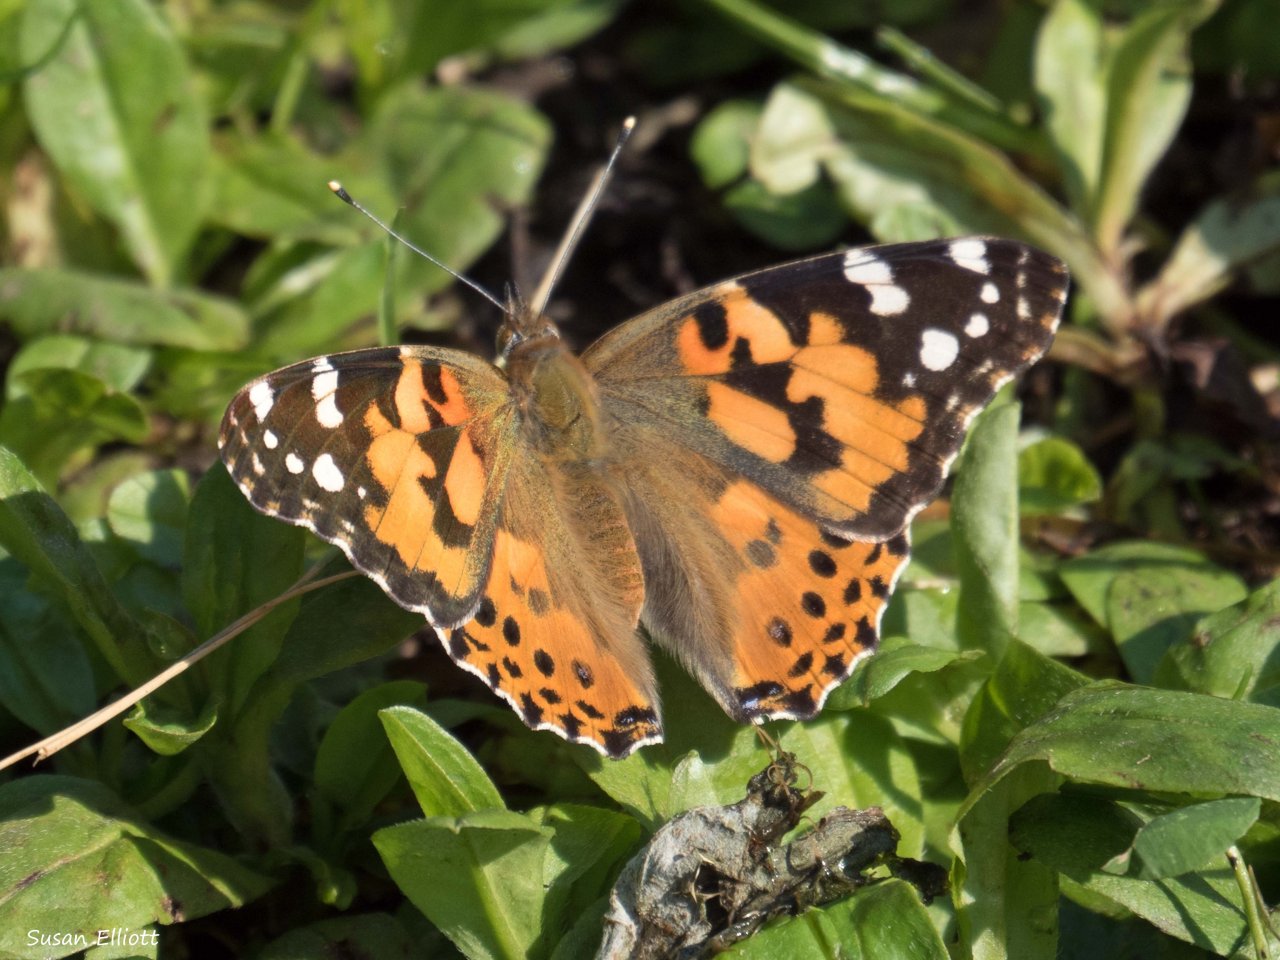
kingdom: Animalia
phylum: Arthropoda
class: Insecta
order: Lepidoptera
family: Nymphalidae
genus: Vanessa
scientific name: Vanessa cardui
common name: Painted Lady
